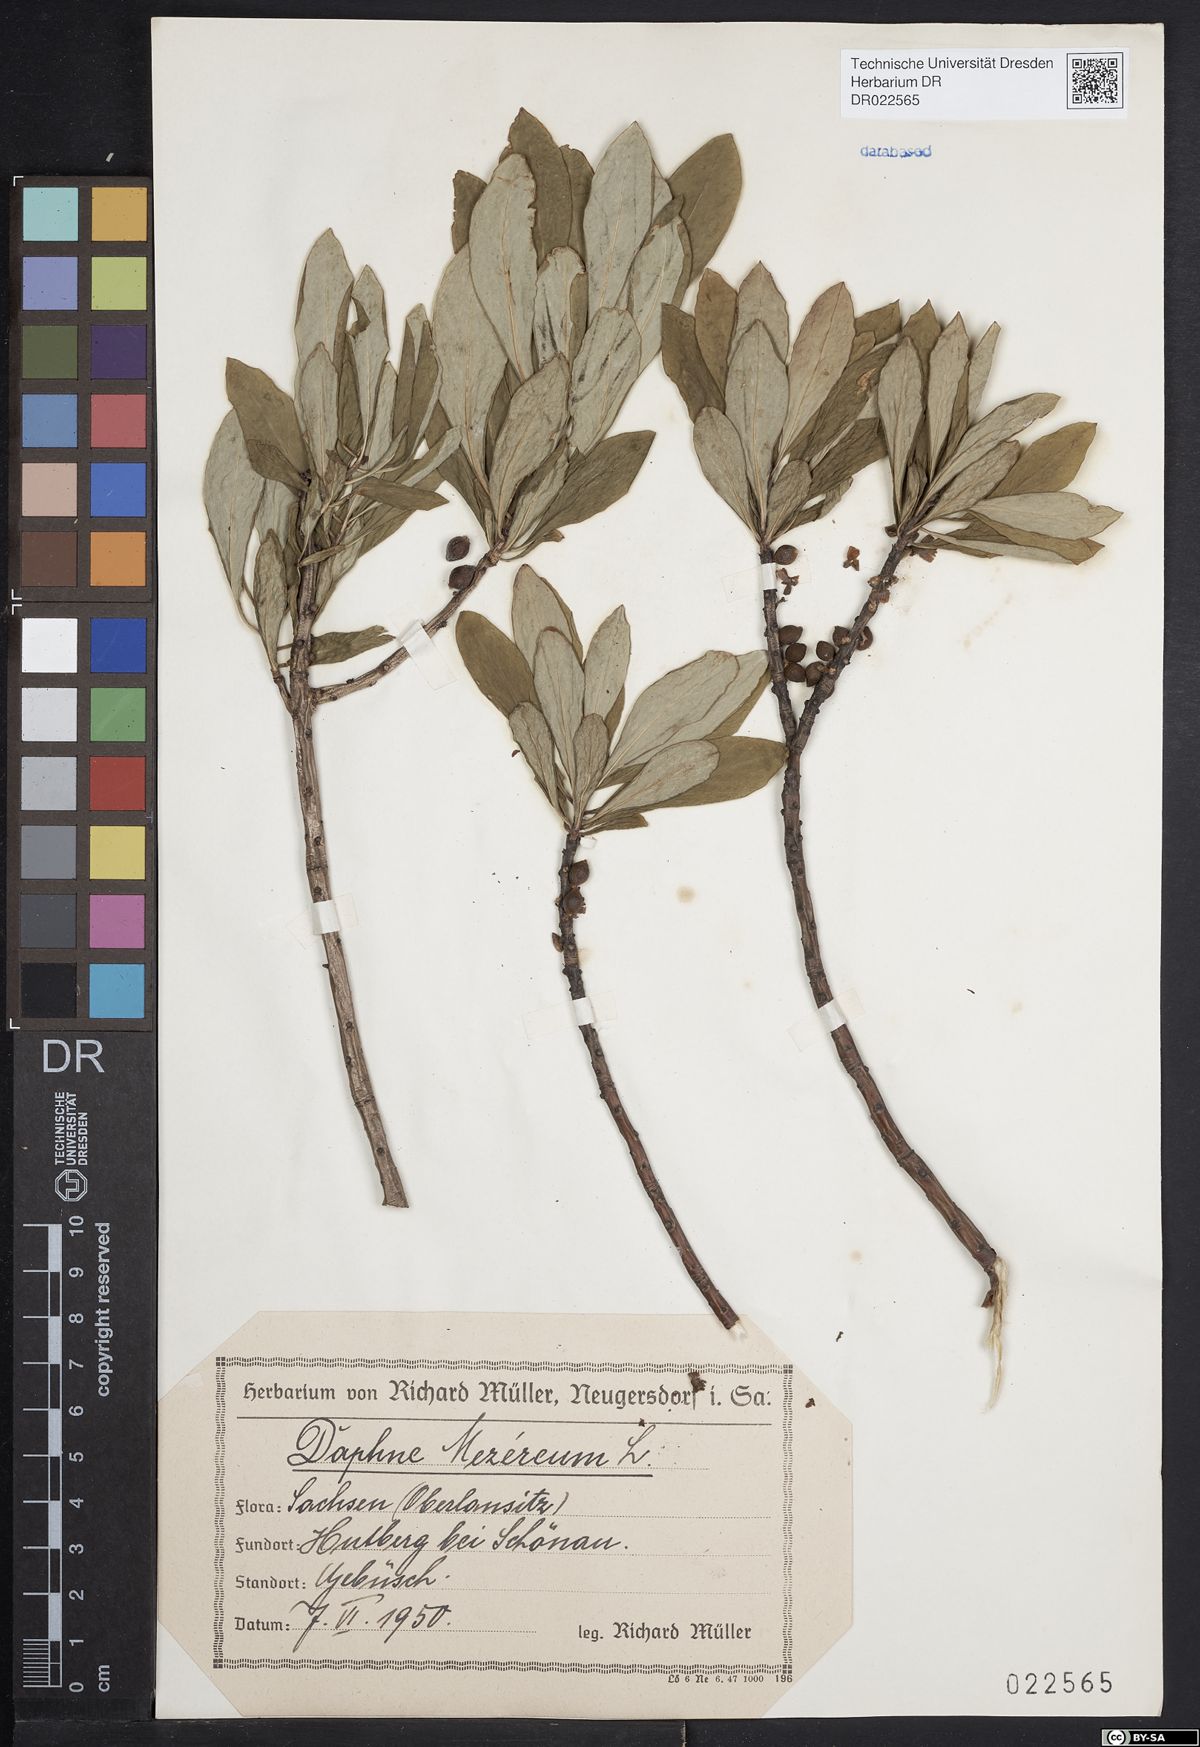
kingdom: Plantae
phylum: Tracheophyta
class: Magnoliopsida
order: Malvales
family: Thymelaeaceae
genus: Daphne
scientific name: Daphne mezereum
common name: Mezereon
